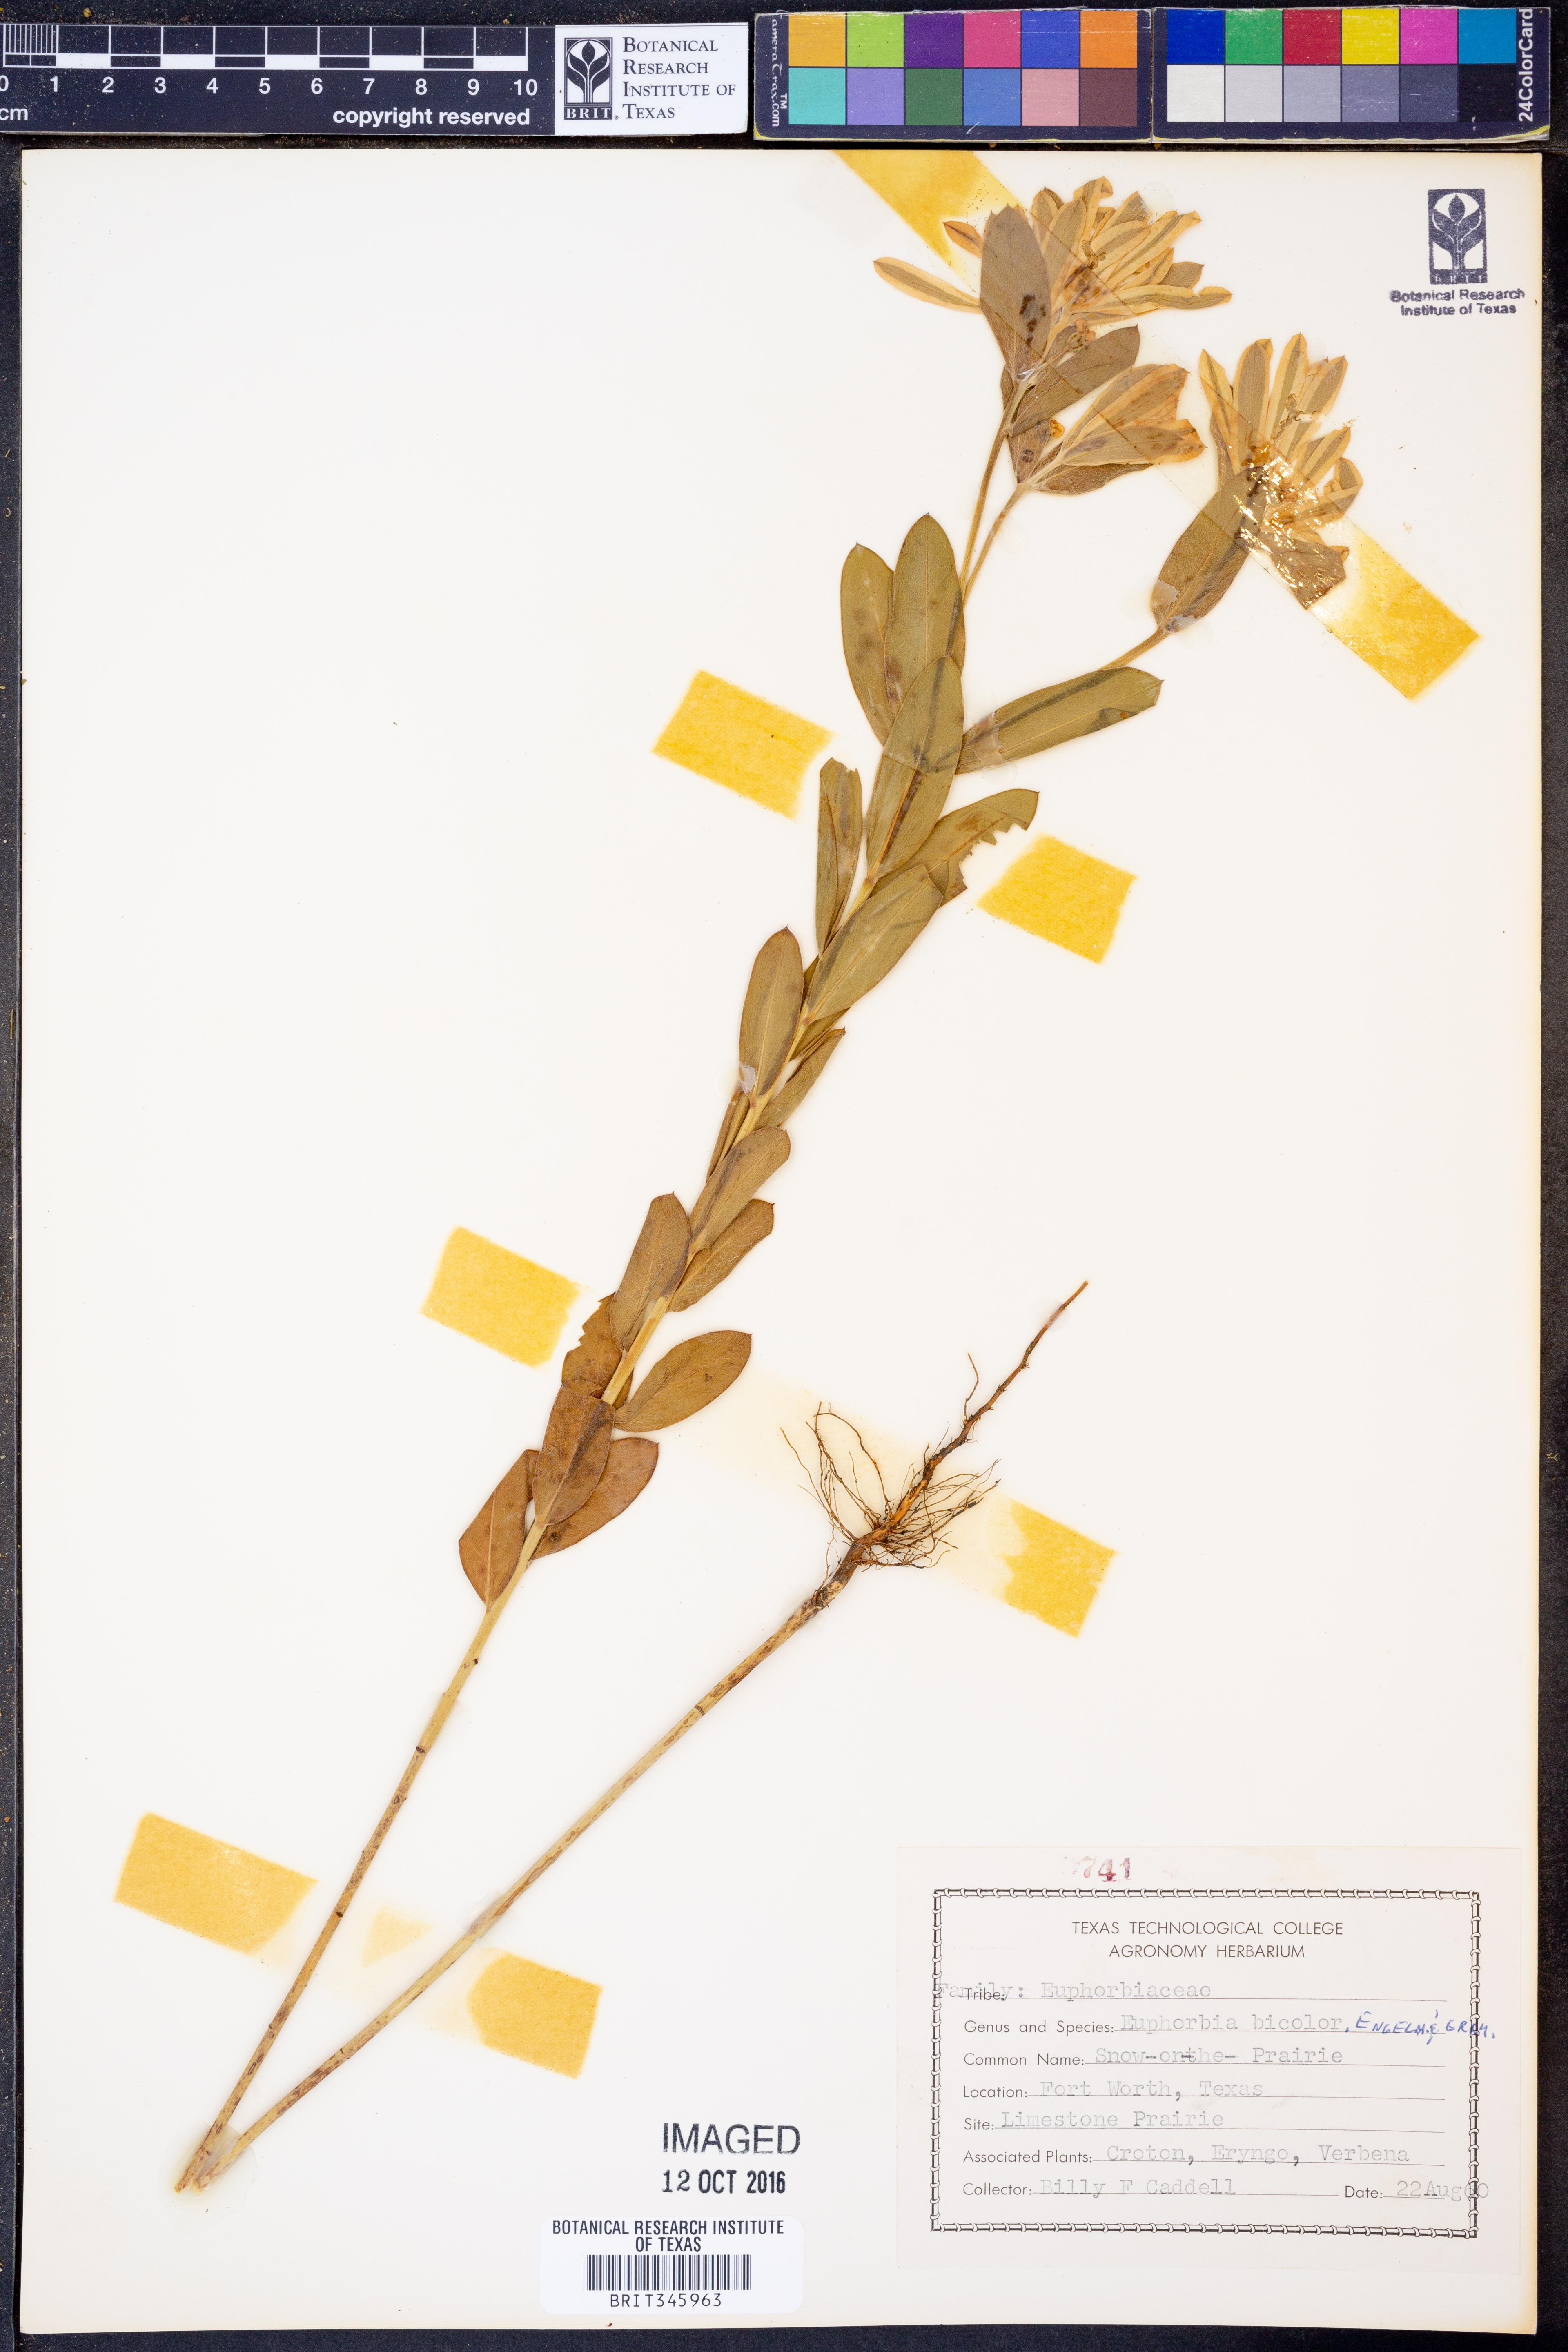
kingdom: Plantae
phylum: Tracheophyta
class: Magnoliopsida
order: Malpighiales
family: Euphorbiaceae
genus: Euphorbia
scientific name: Euphorbia bicolor
